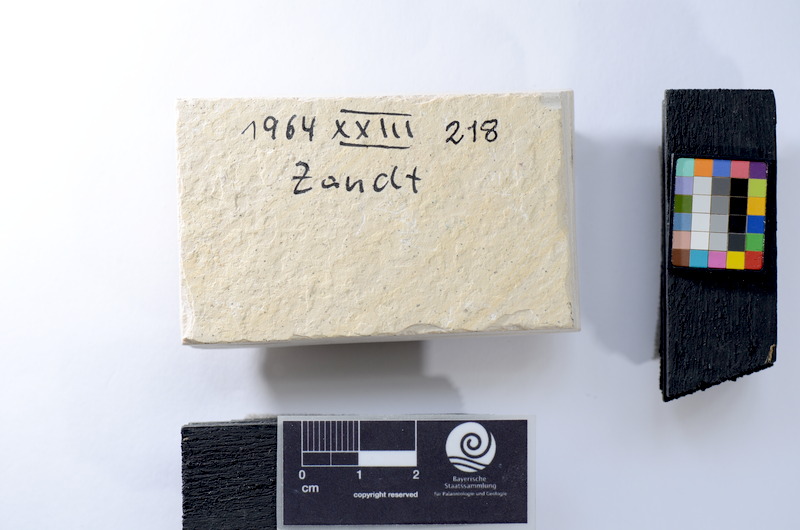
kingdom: Animalia
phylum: Chordata
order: Salmoniformes
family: Orthogonikleithridae
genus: Leptolepides
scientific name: Leptolepides haerteisi
